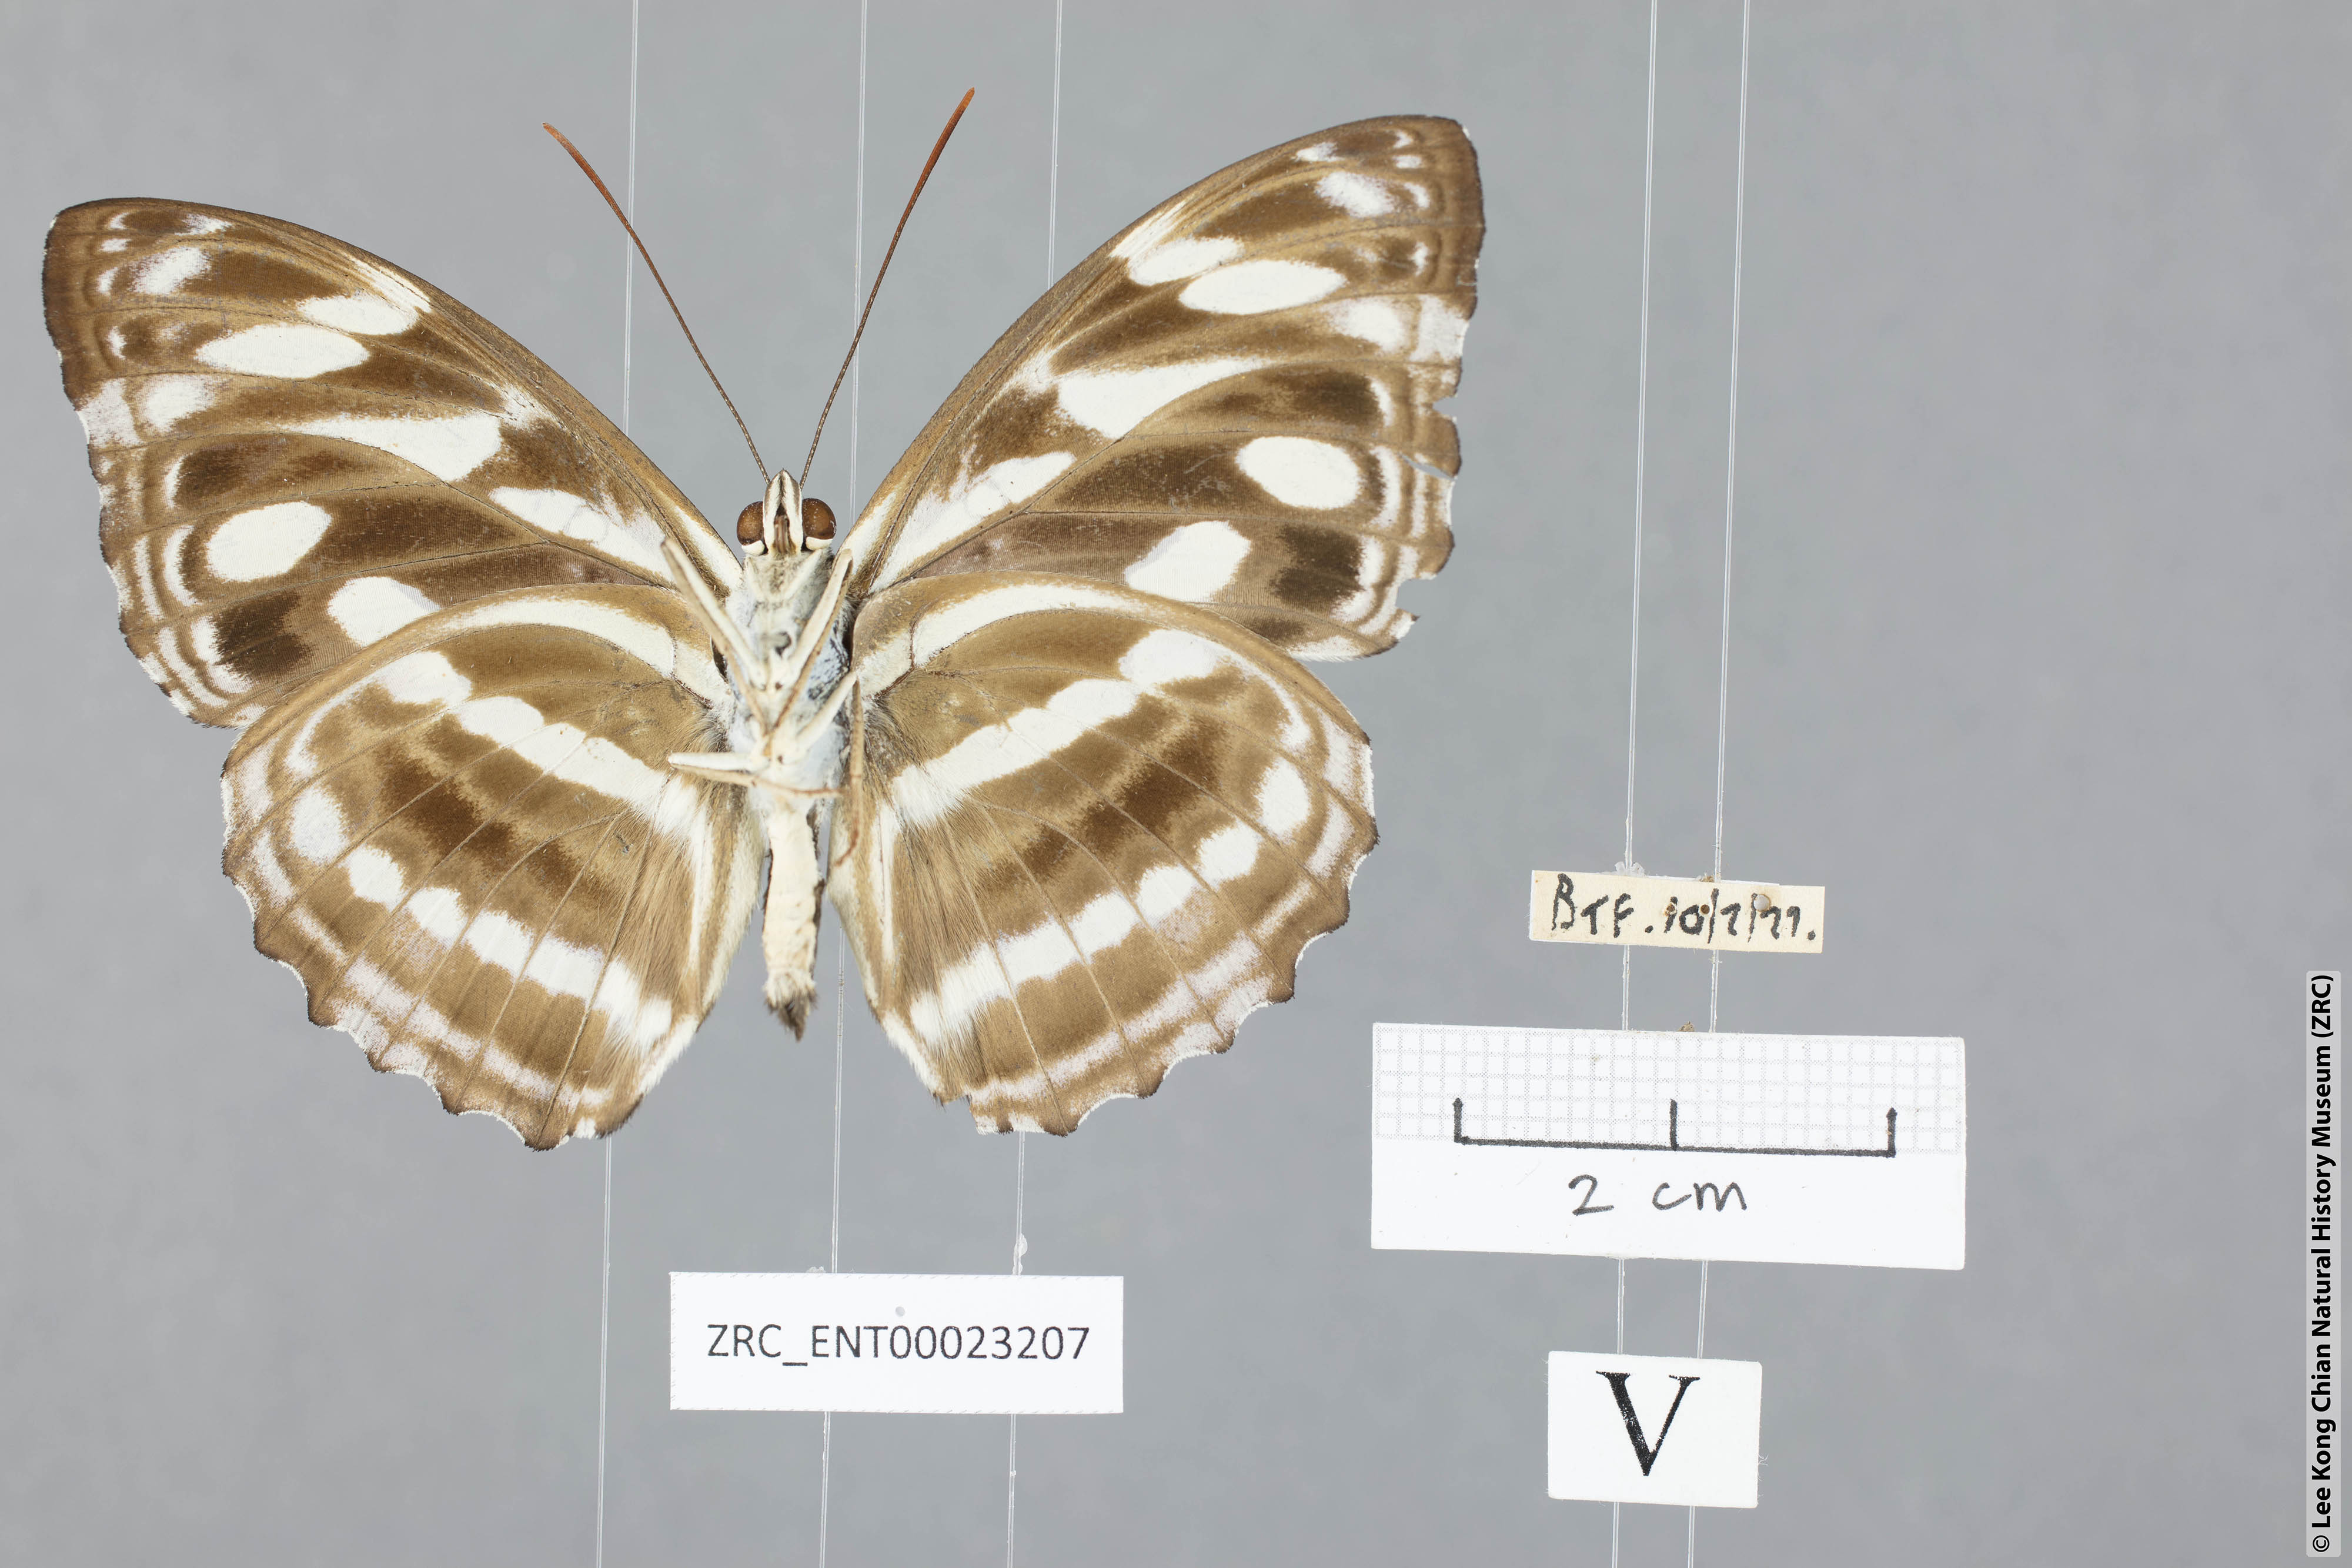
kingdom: Animalia
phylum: Arthropoda
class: Insecta
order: Lepidoptera
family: Nymphalidae
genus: Pantoporia
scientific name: Pantoporia larymna
